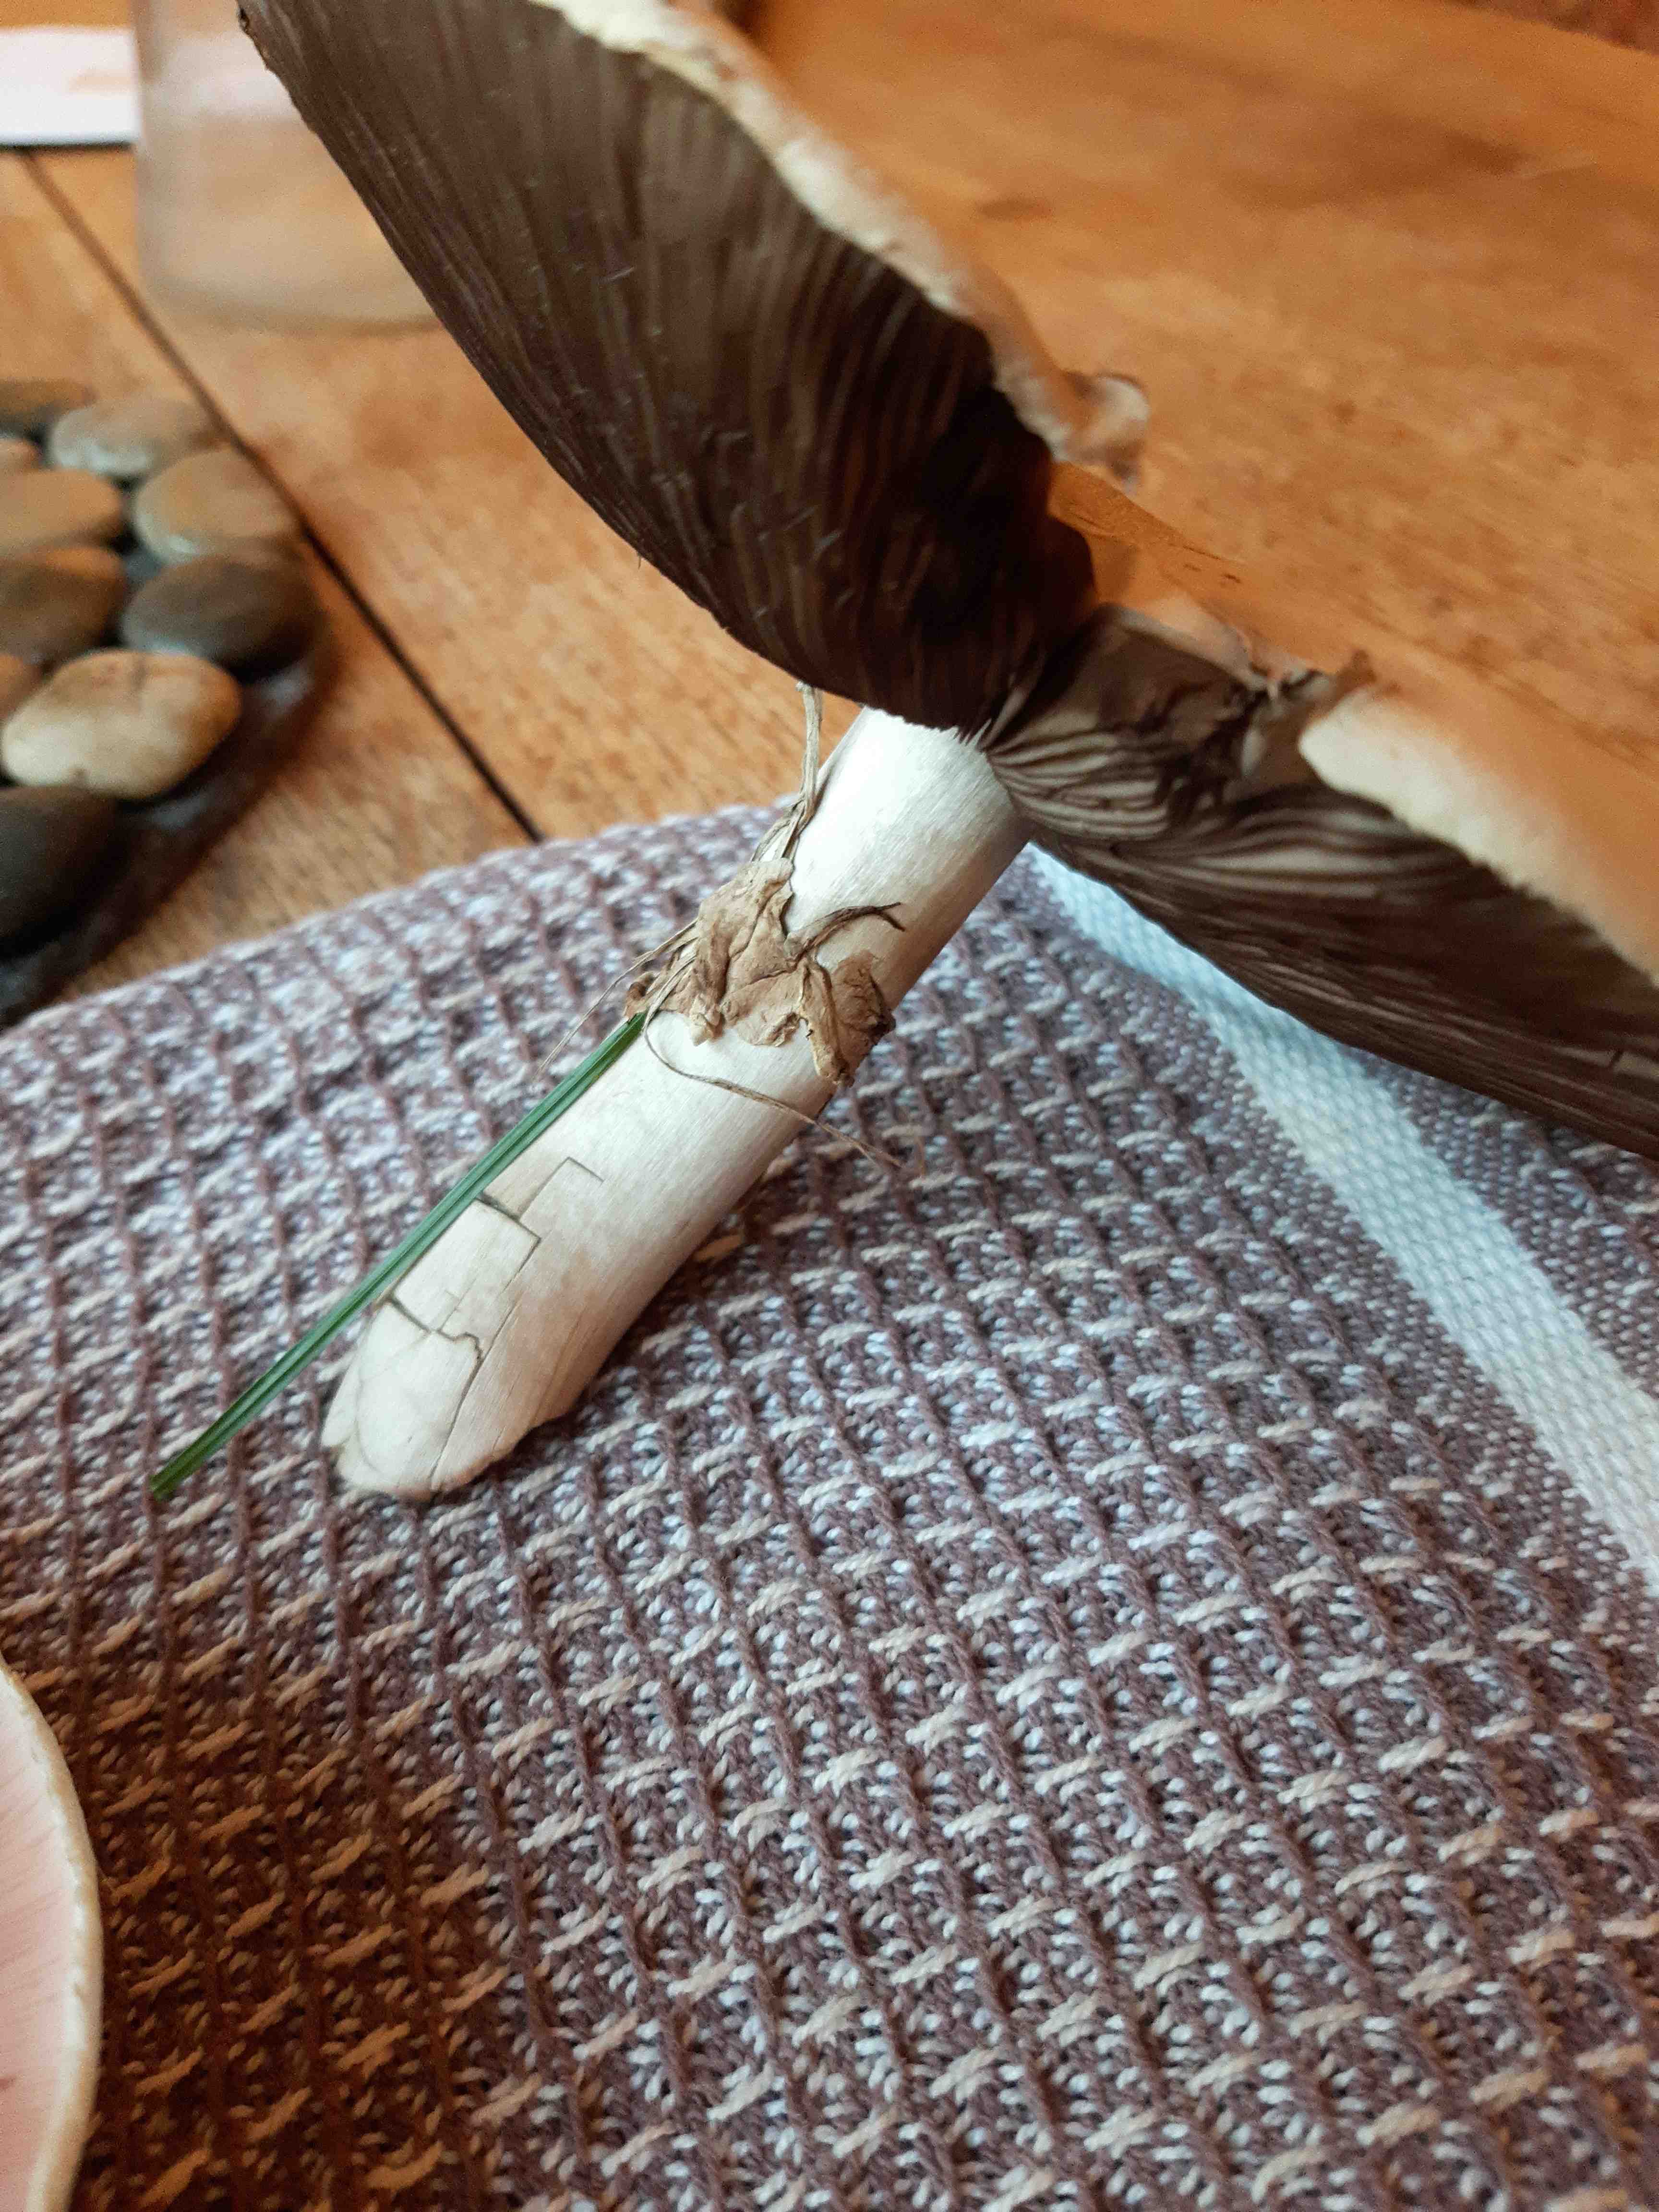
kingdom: Fungi
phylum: Basidiomycota
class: Agaricomycetes
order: Agaricales
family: Agaricaceae
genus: Agaricus
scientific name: Agaricus
